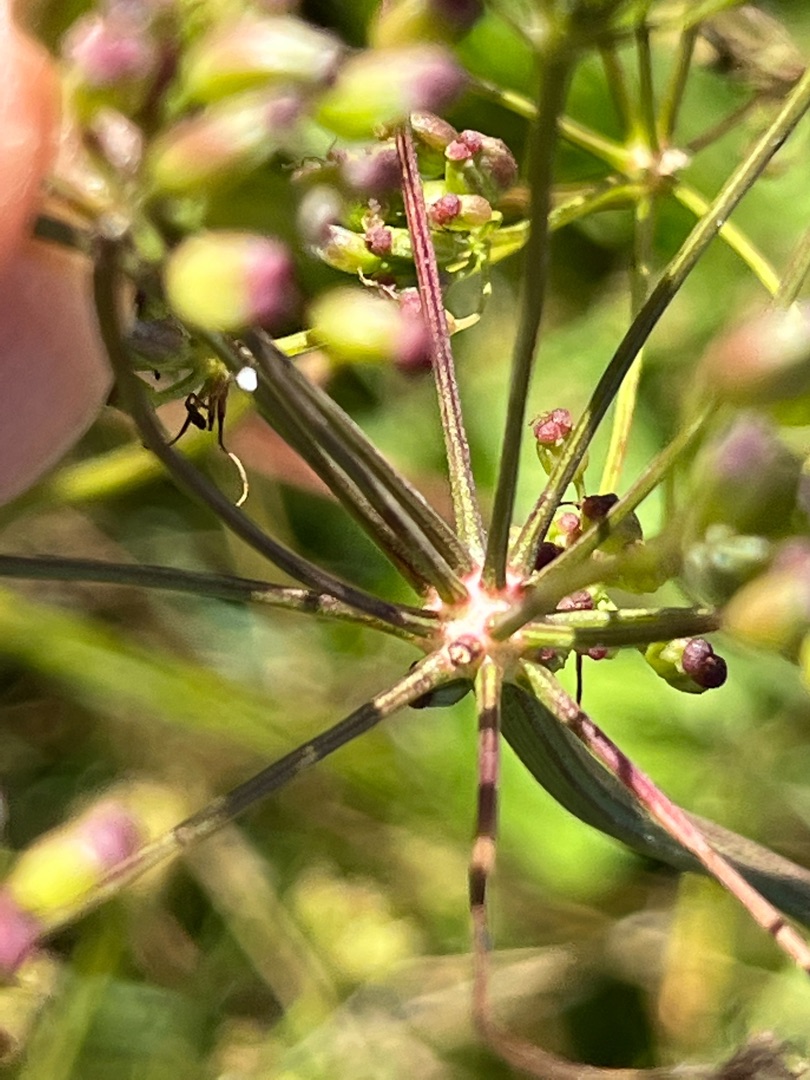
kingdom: Animalia
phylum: Arthropoda
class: Insecta
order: Diptera
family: Cecidomyiidae
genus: Lasioptera
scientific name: Lasioptera carophila
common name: Skærmgalmyg
